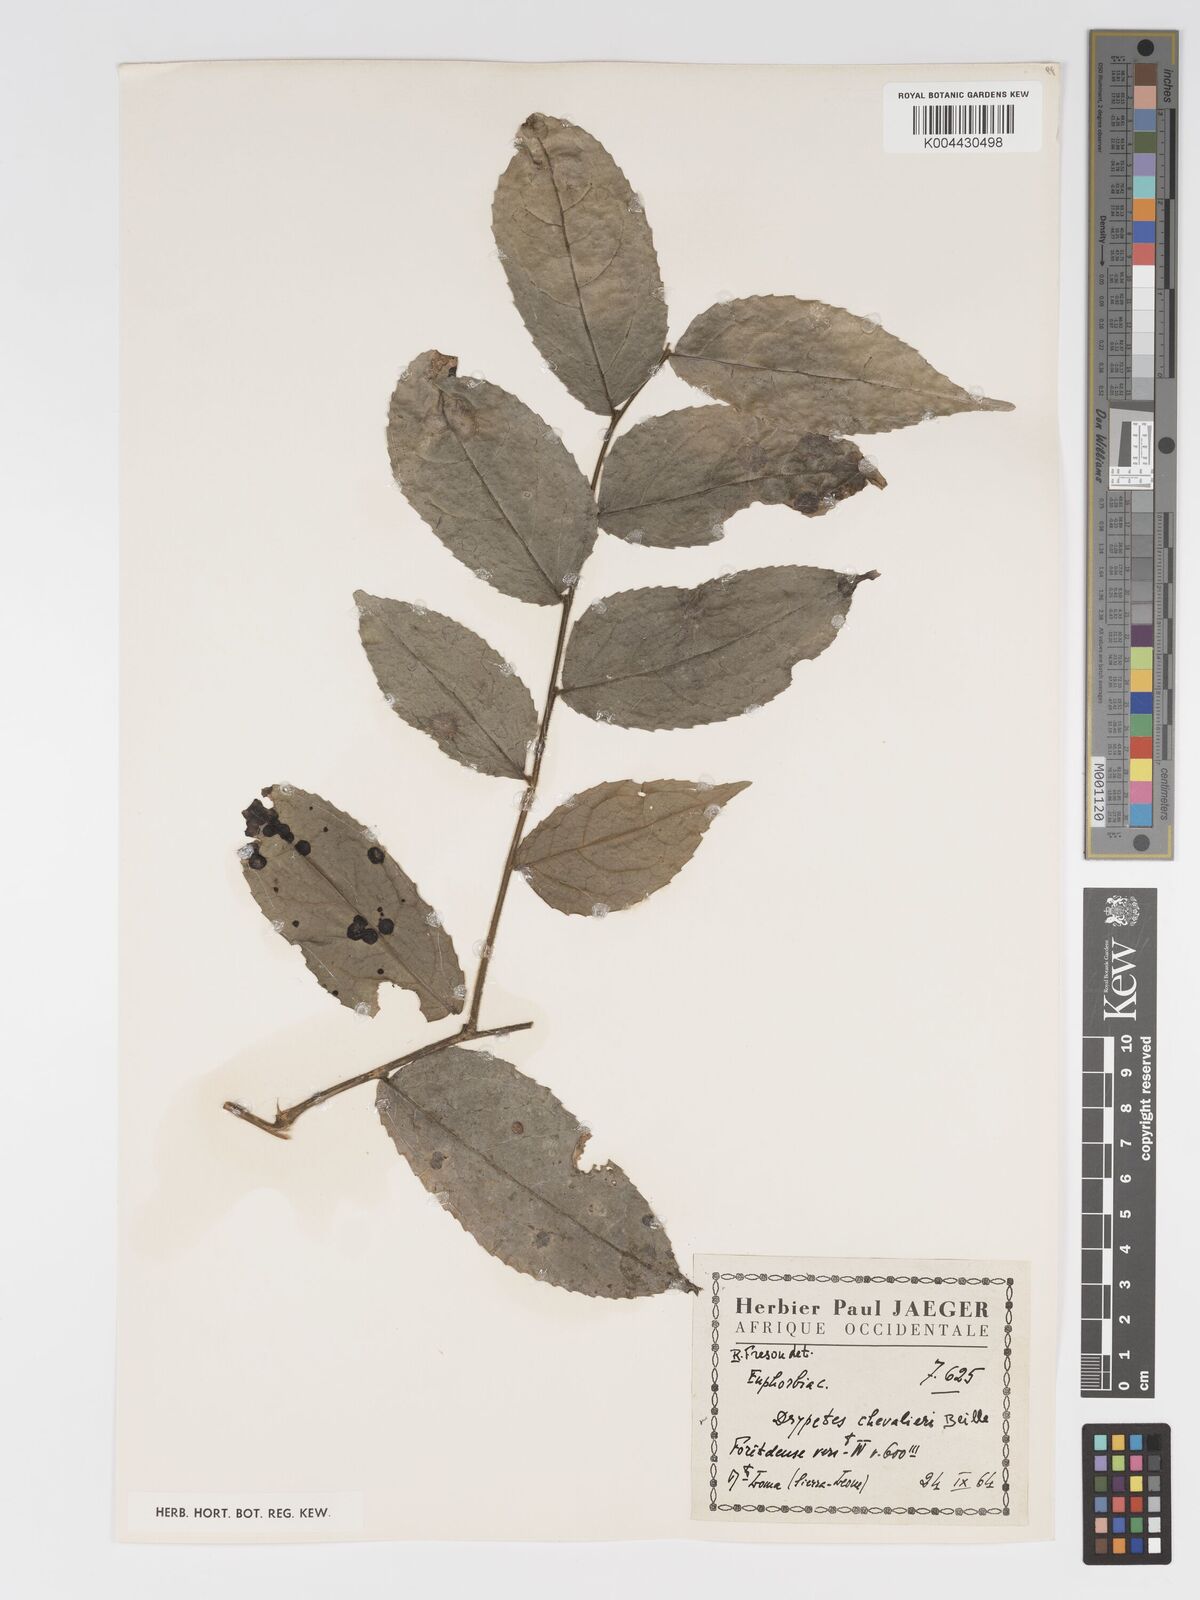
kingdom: Plantae
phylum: Tracheophyta
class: Magnoliopsida
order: Malpighiales
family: Putranjivaceae
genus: Drypetes
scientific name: Drypetes chevalieri
